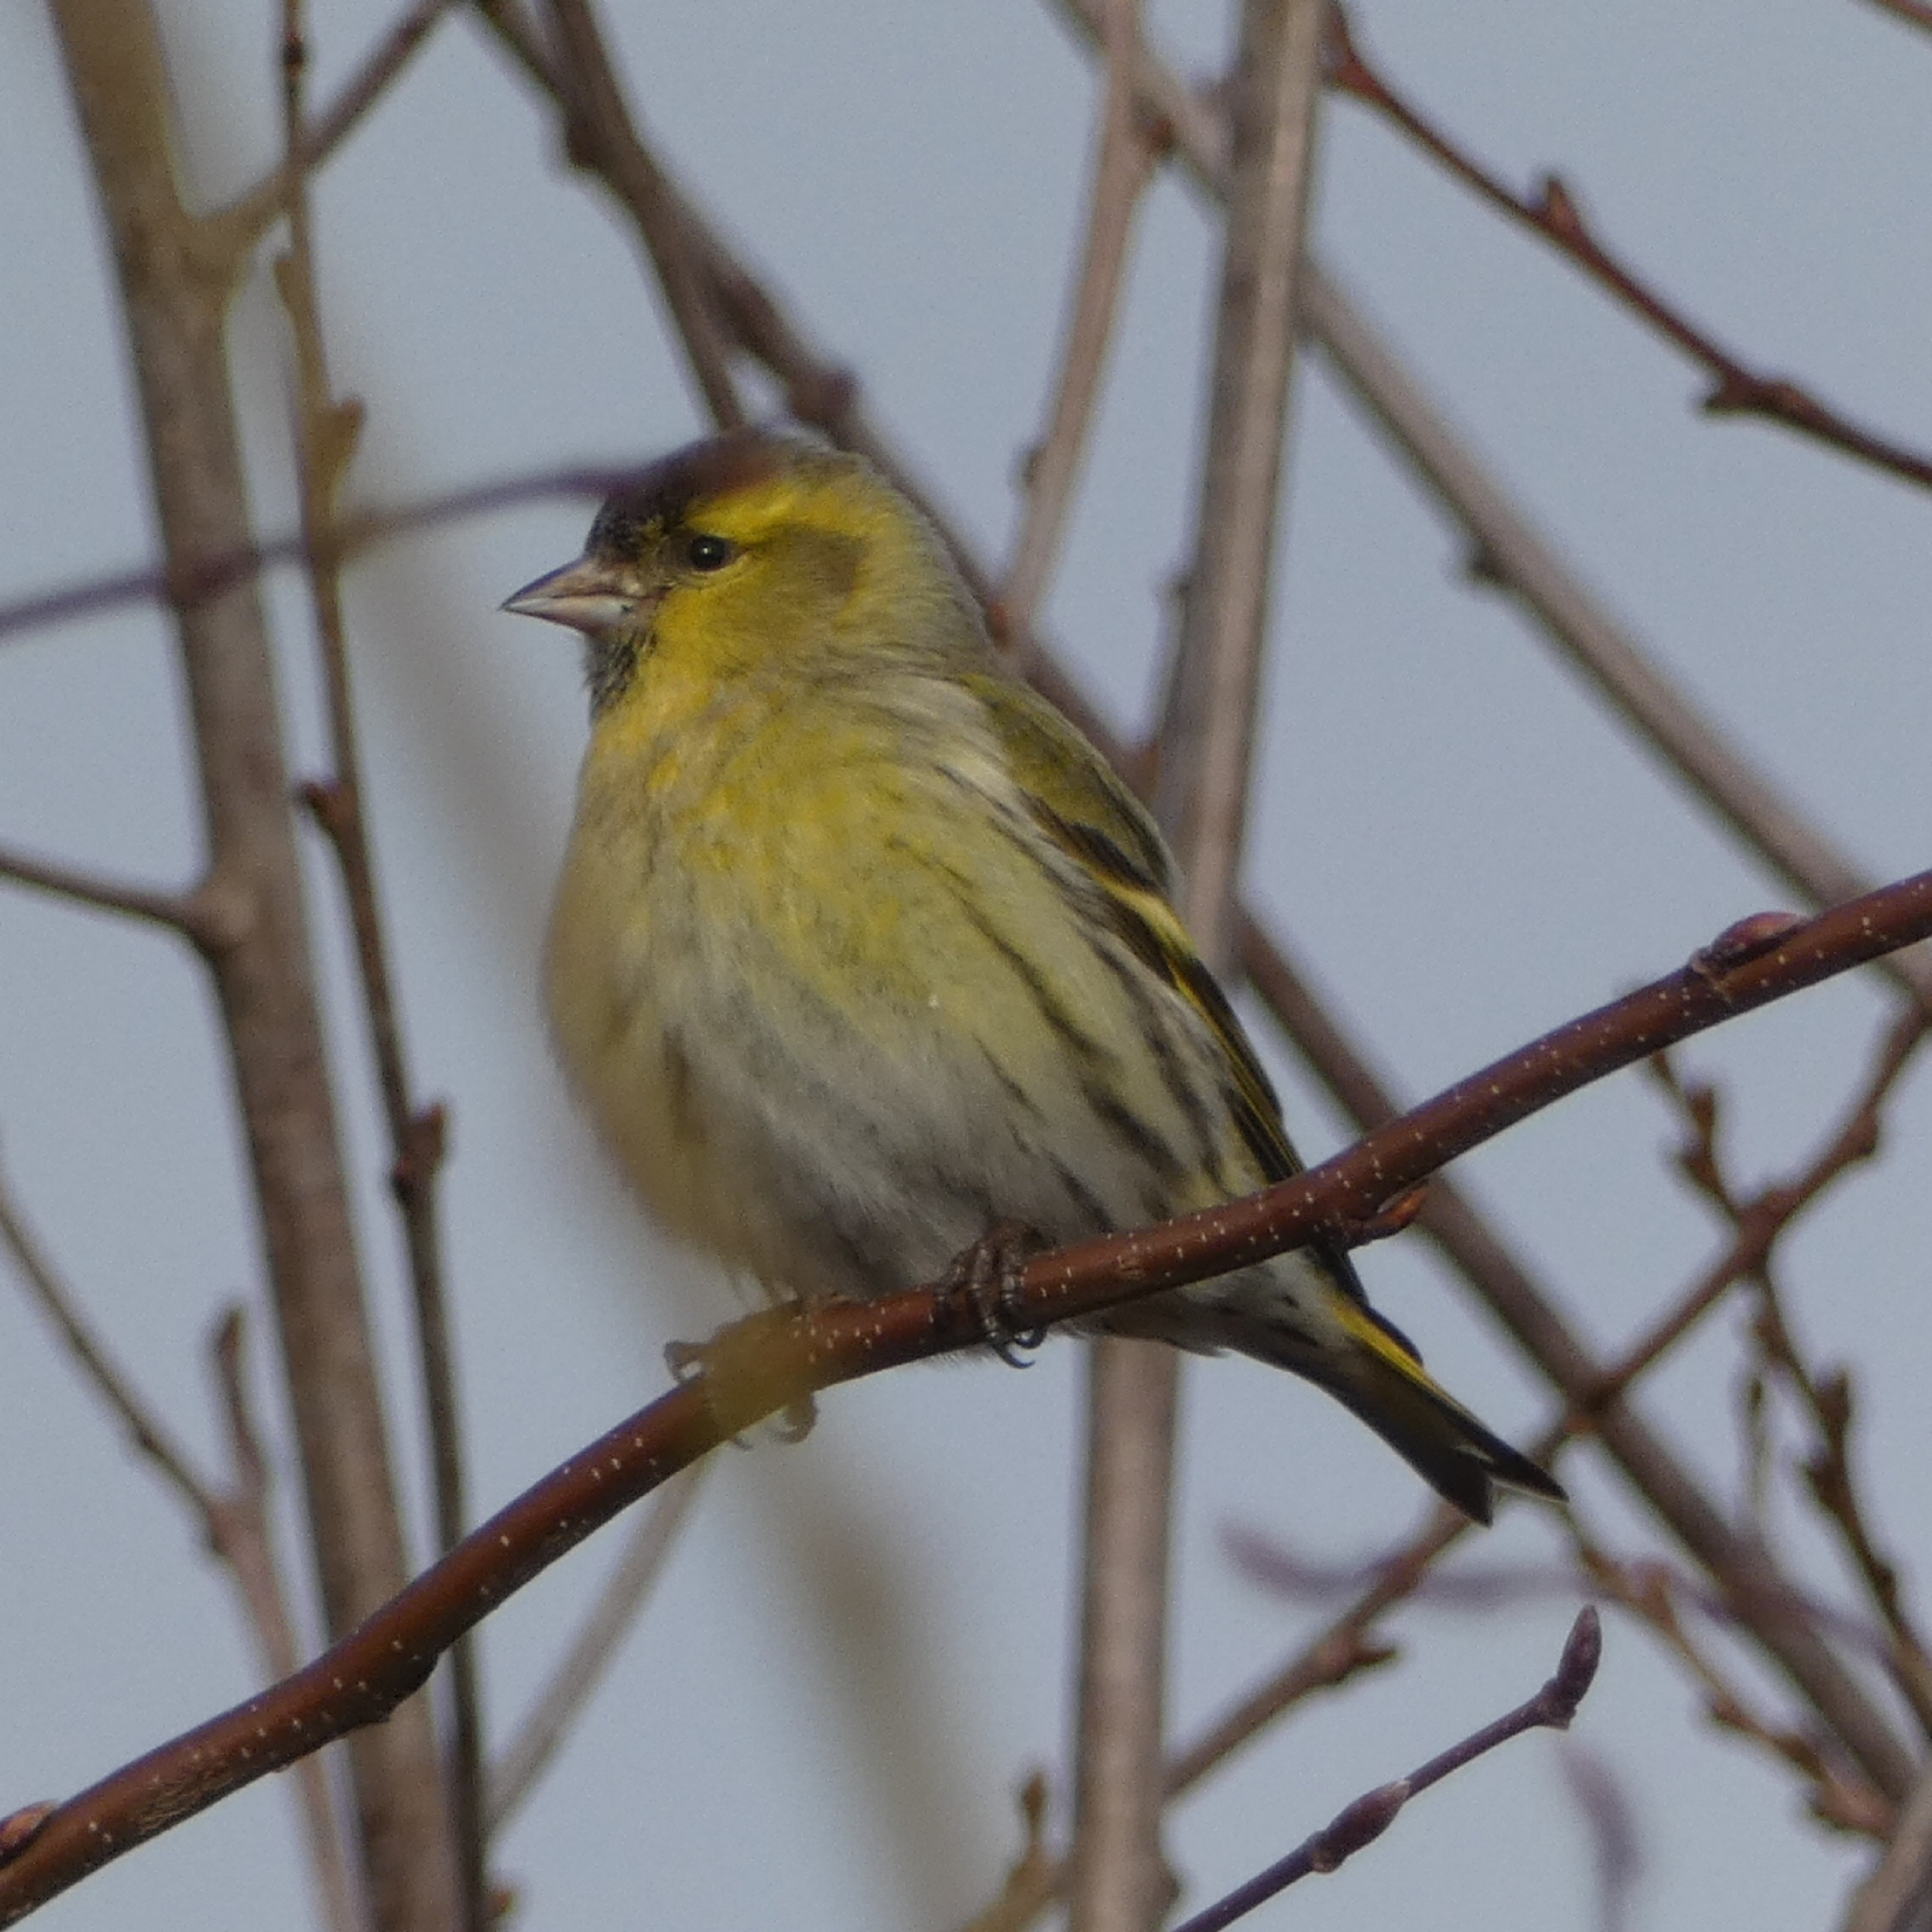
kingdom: Animalia
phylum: Chordata
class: Aves
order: Passeriformes
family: Fringillidae
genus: Spinus
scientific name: Spinus spinus
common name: Grønsisken
